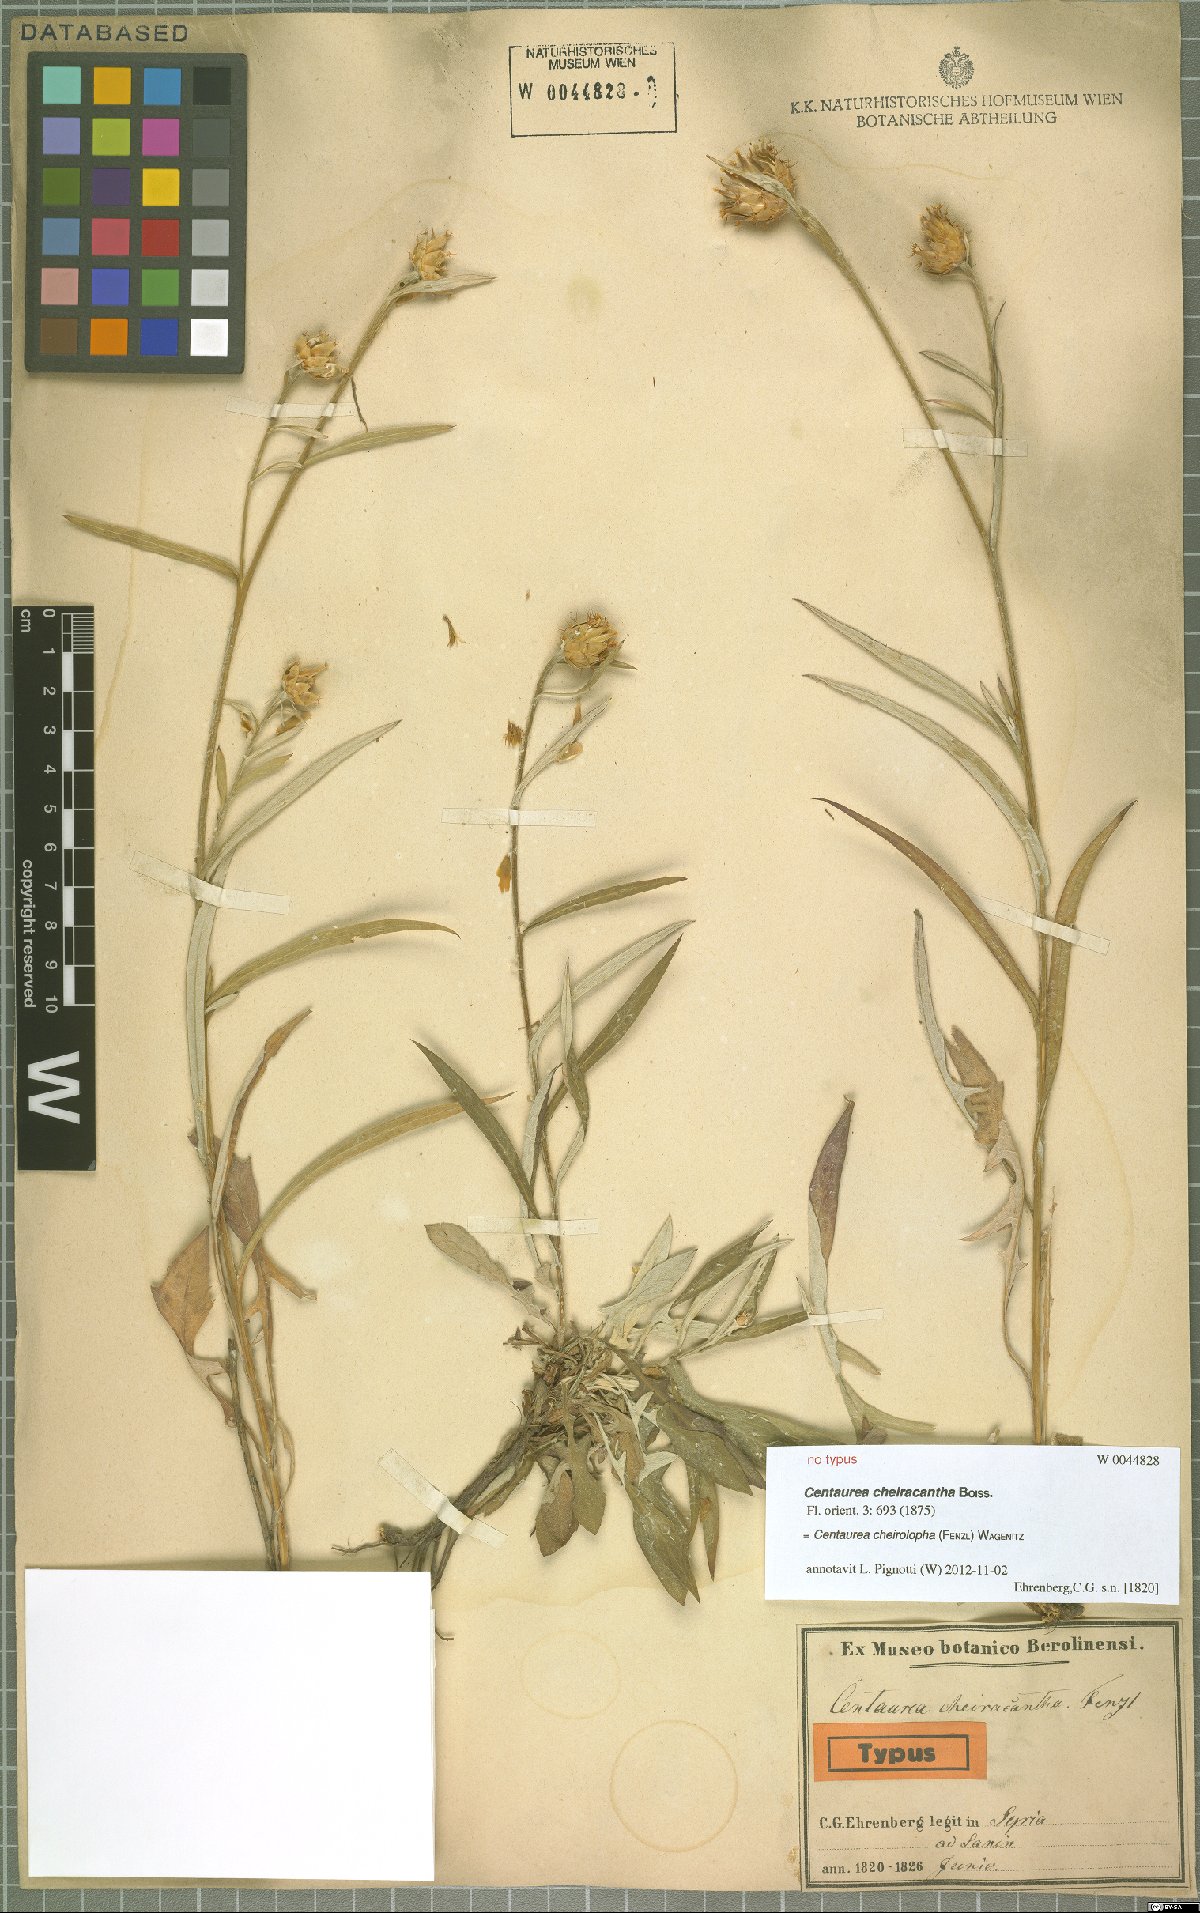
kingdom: Plantae
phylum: Tracheophyta
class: Magnoliopsida
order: Asterales
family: Asteraceae
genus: Centaurea
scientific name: Centaurea cheirolopha
